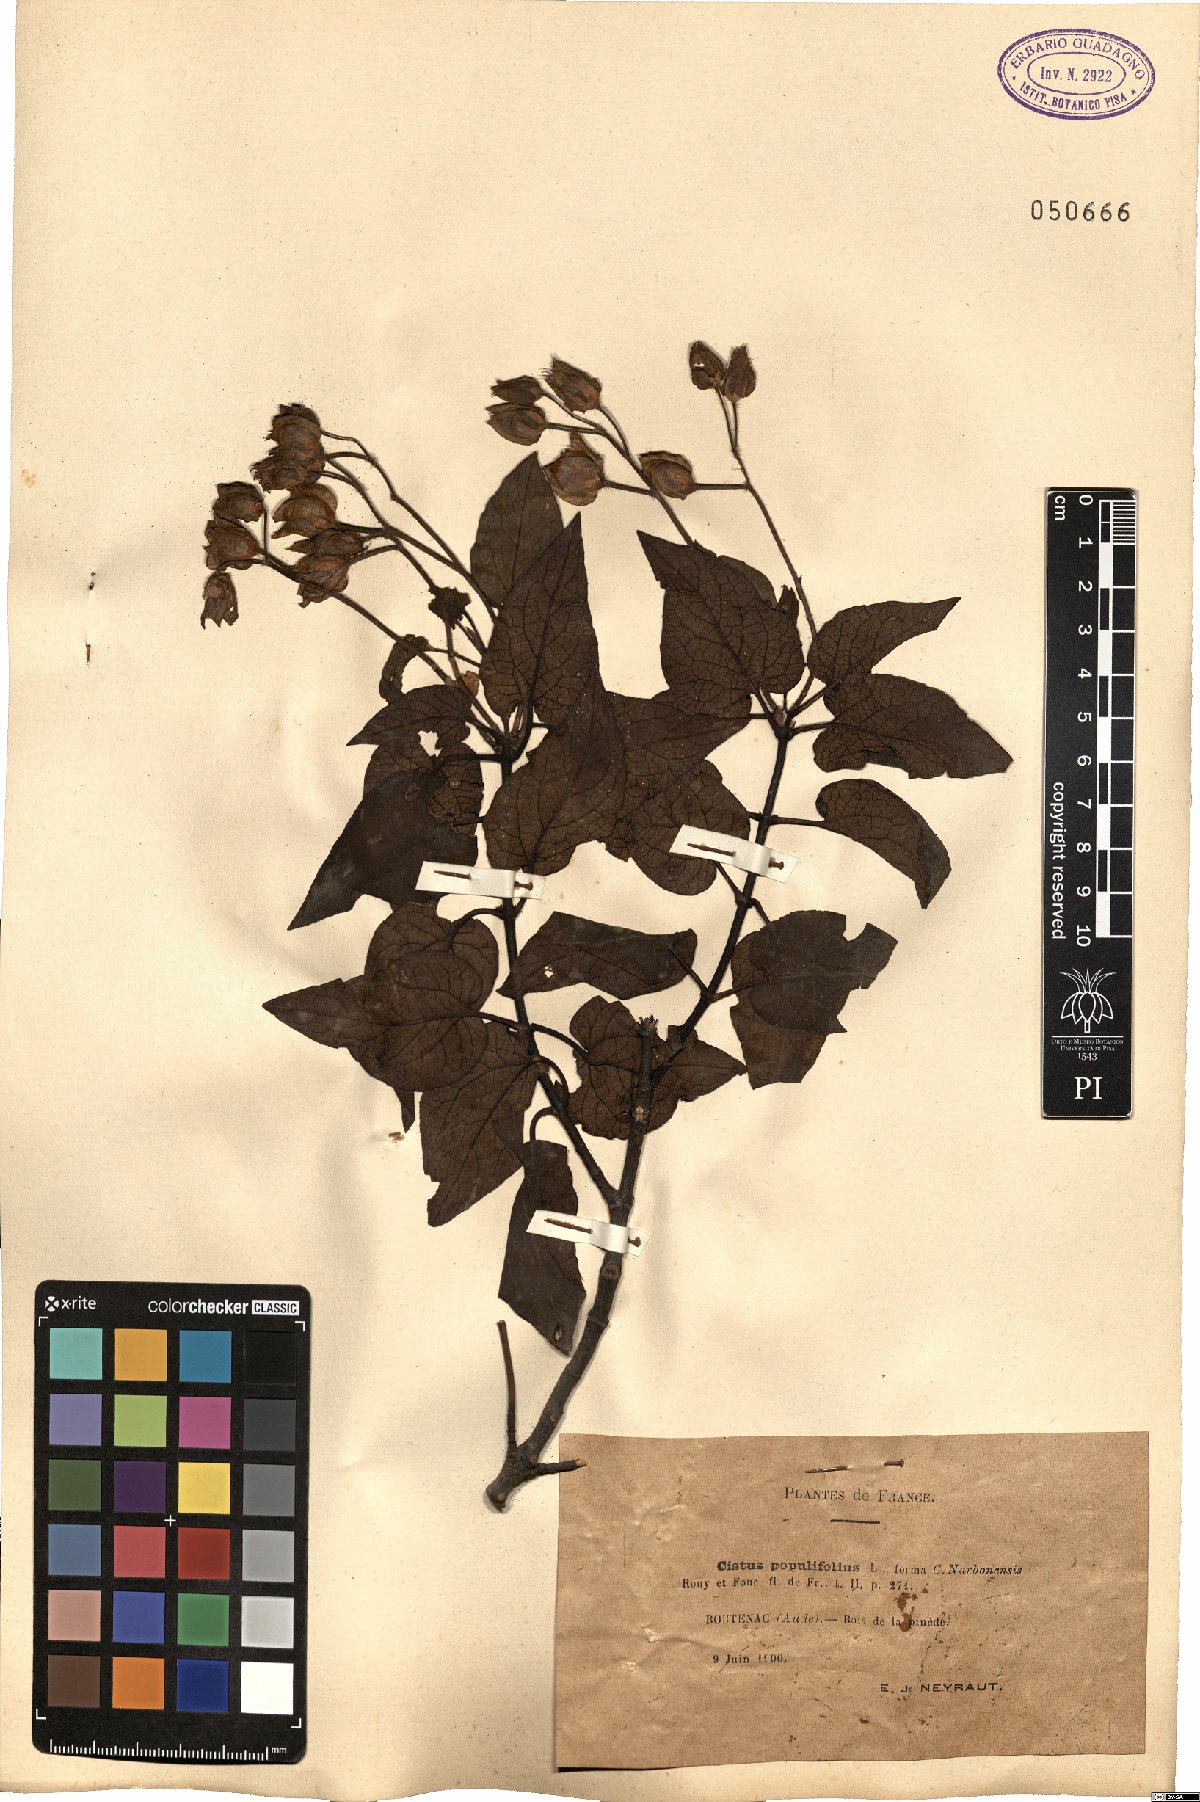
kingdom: Plantae
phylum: Tracheophyta
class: Magnoliopsida
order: Malvales
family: Cistaceae
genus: Cistus
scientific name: Cistus populifolius
